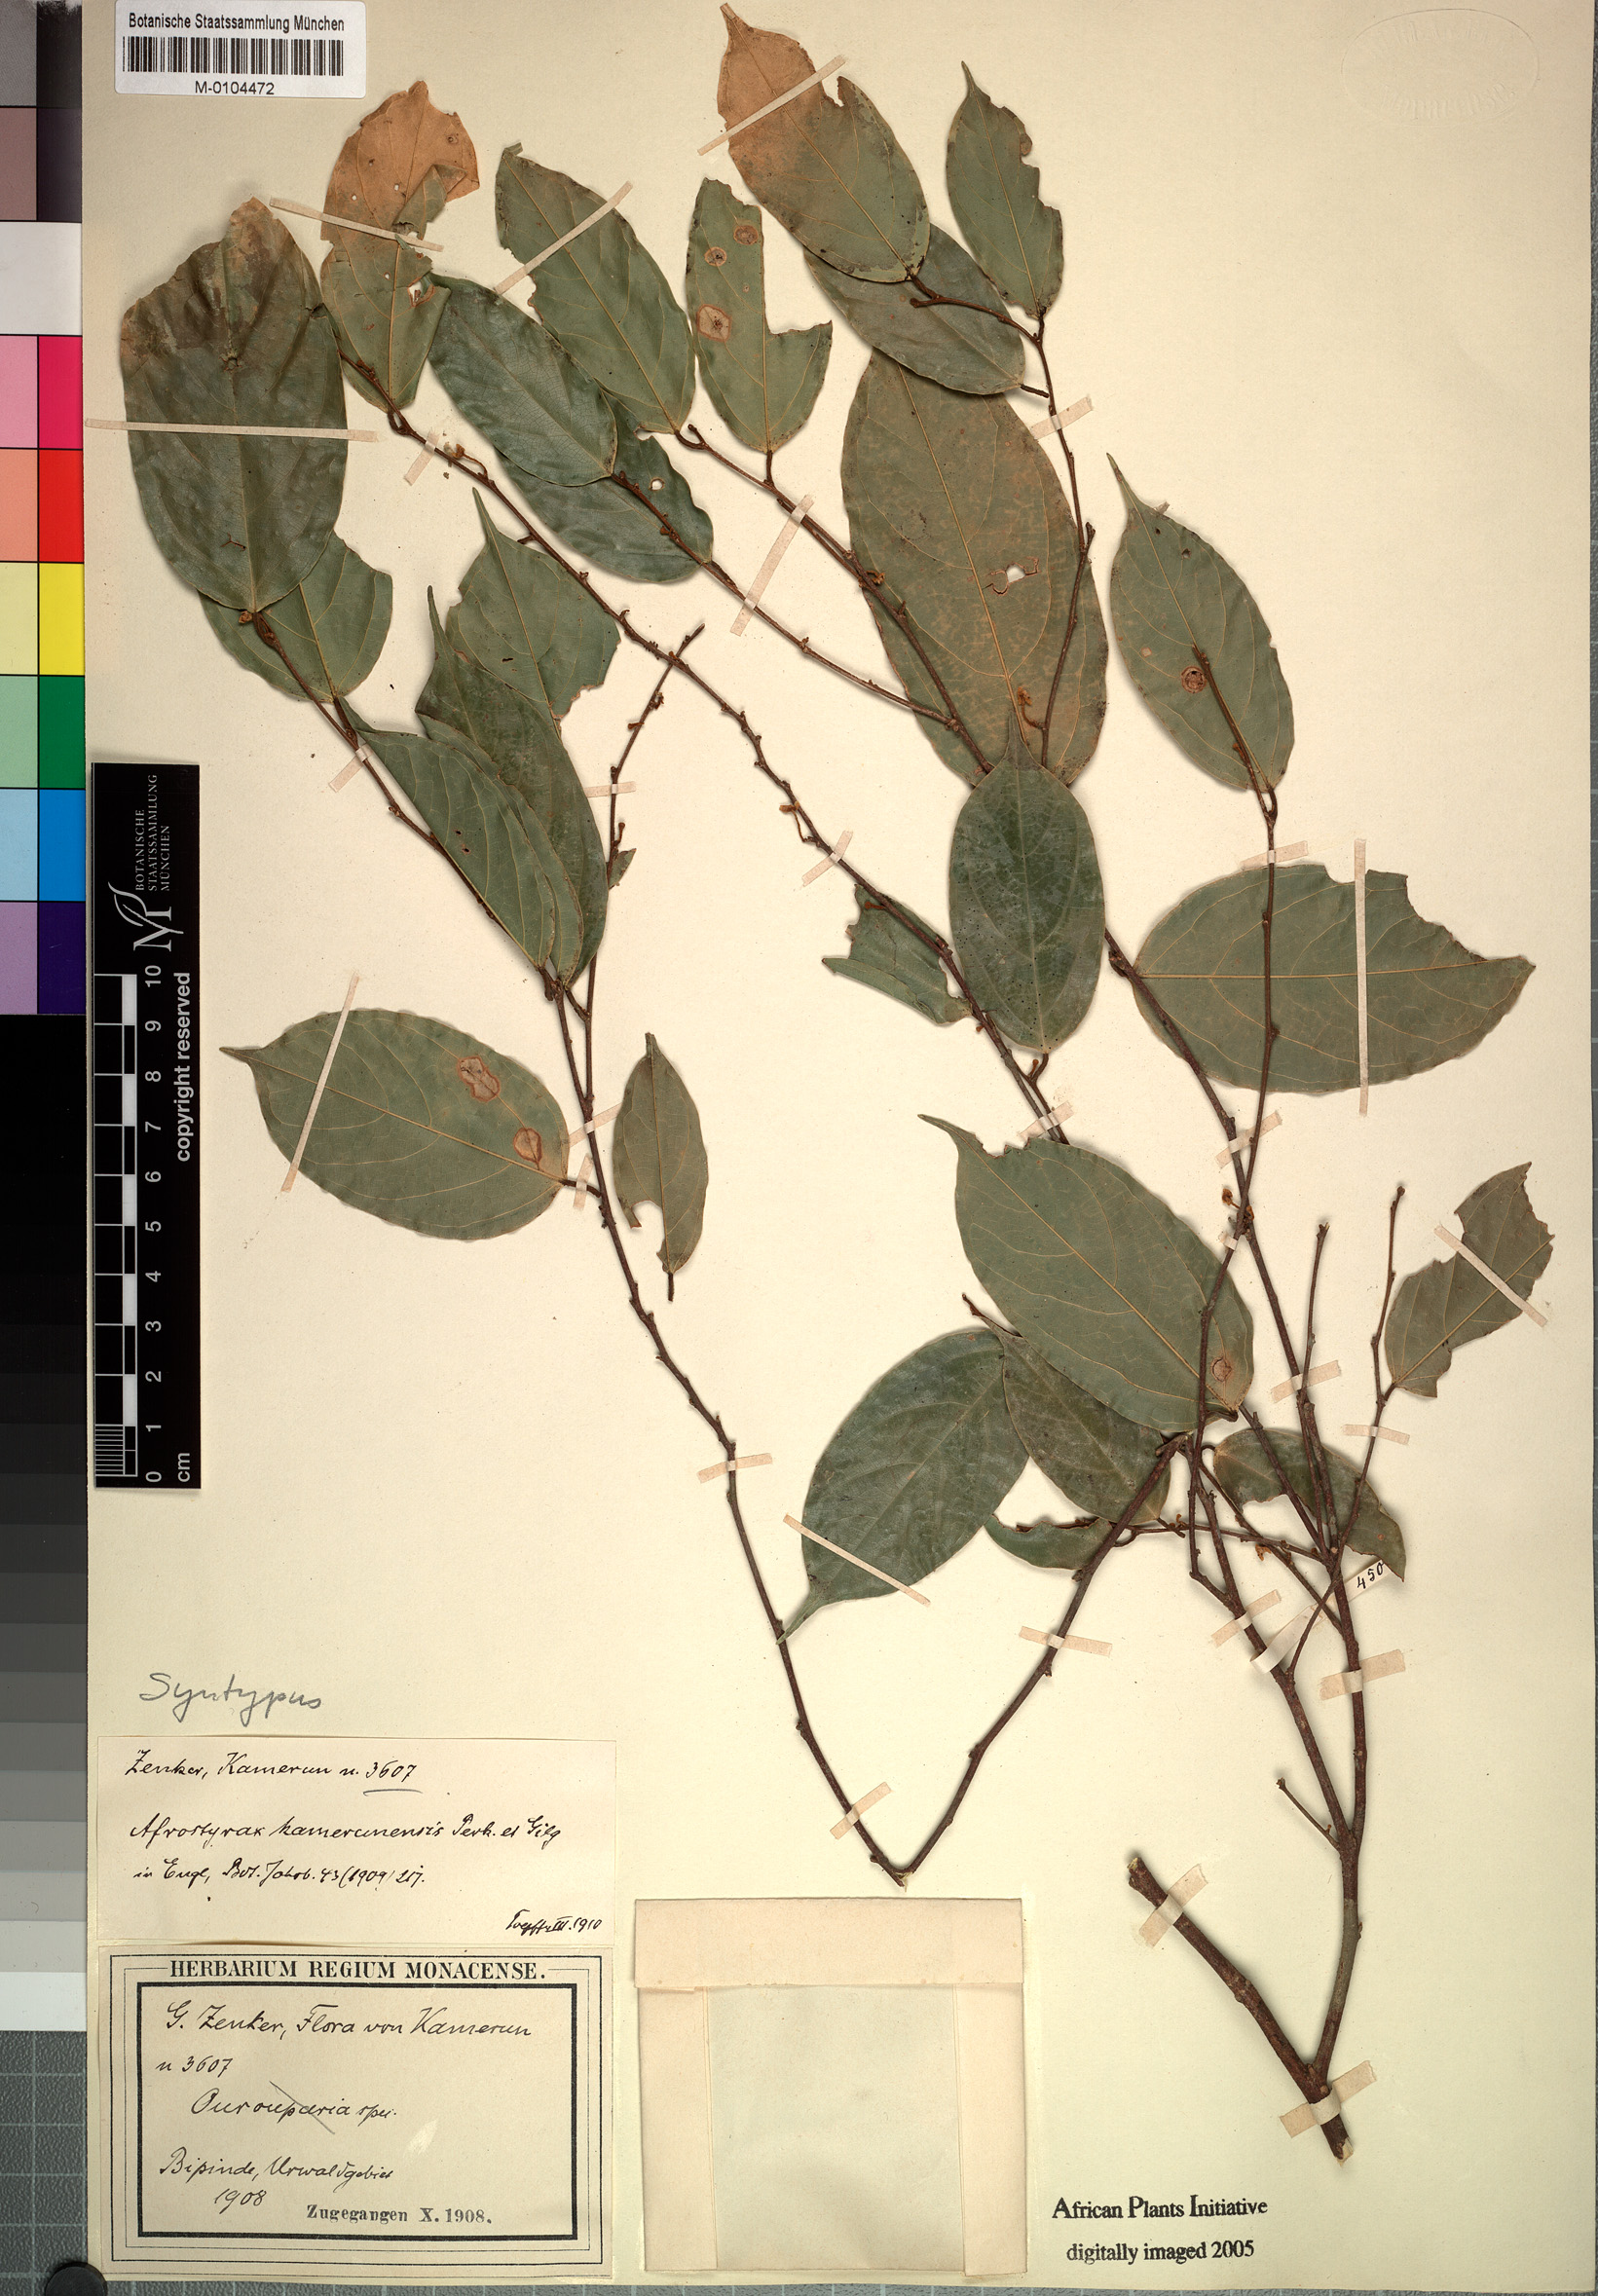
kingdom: Plantae
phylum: Tracheophyta
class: Magnoliopsida
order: Oxalidales
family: Huaceae
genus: Afrostyrax
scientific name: Afrostyrax kamerunensis
